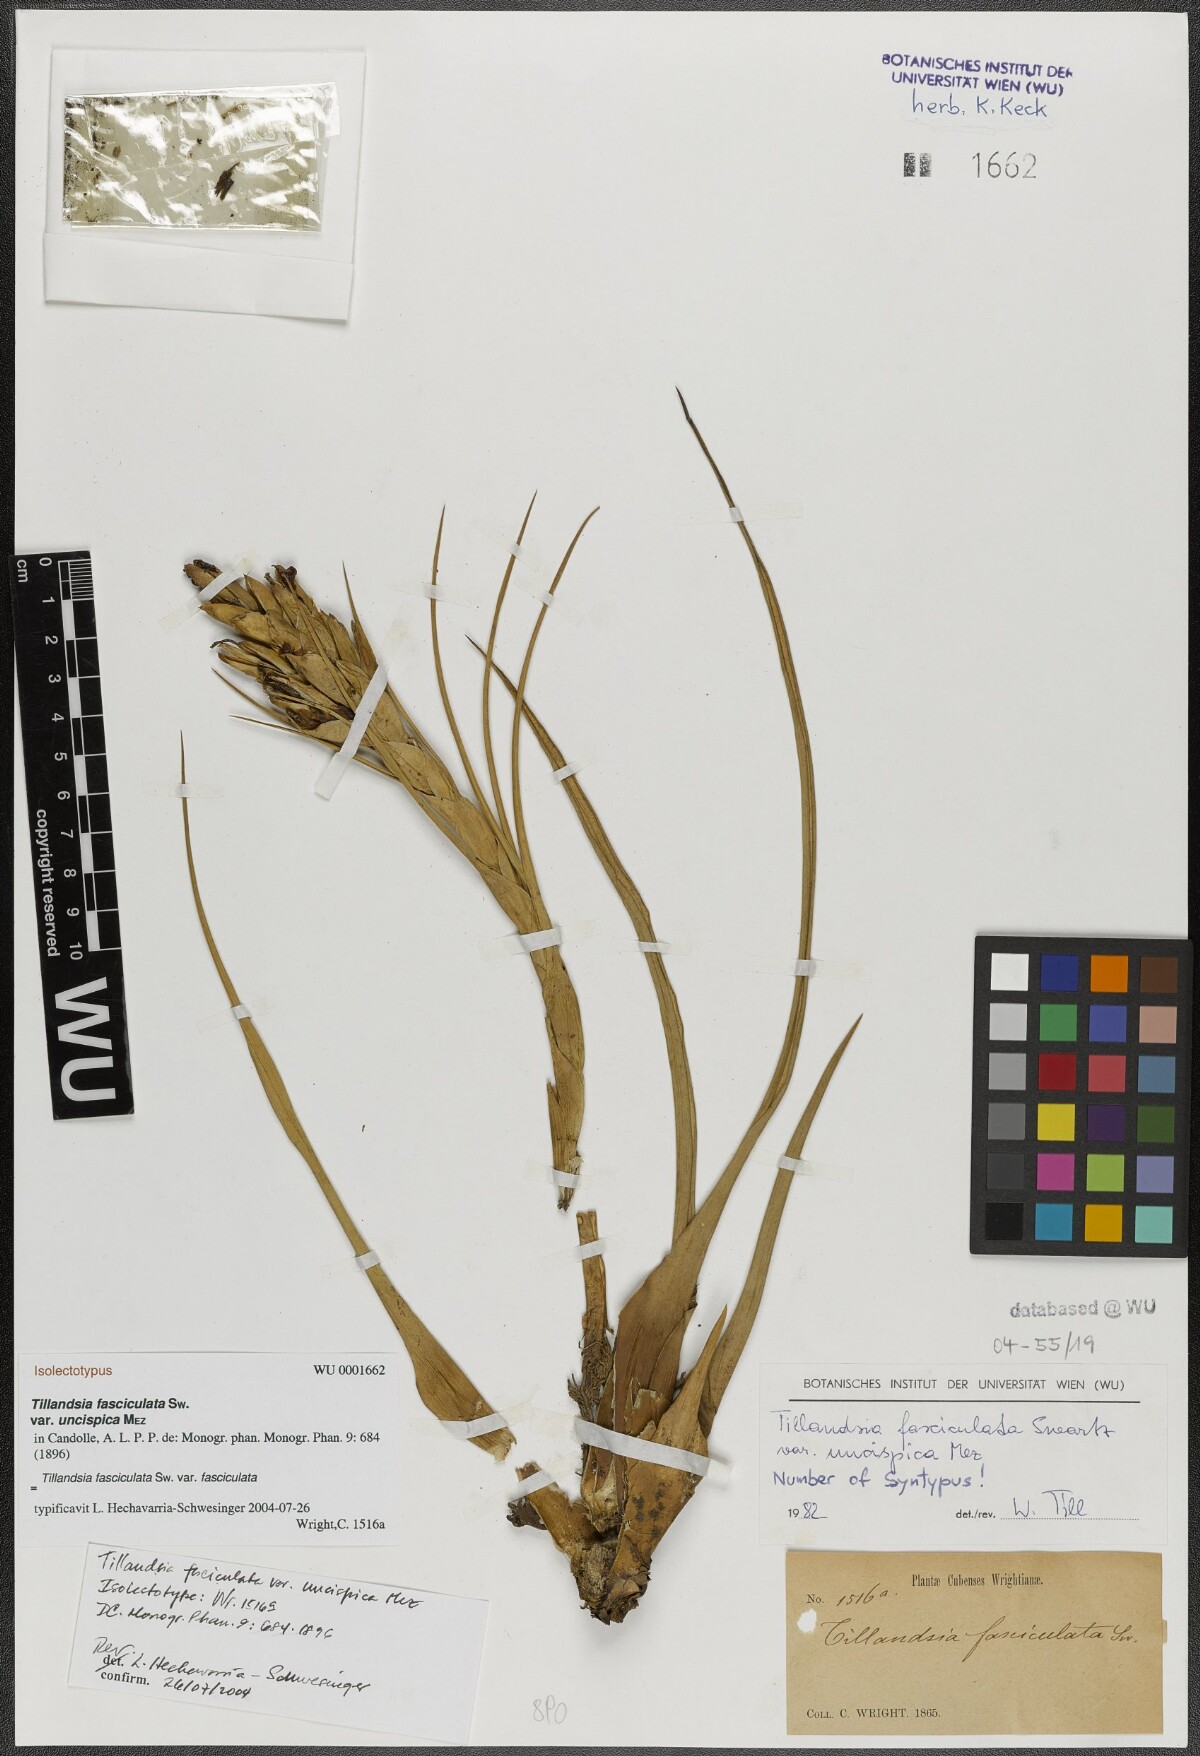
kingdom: Plantae
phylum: Tracheophyta
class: Liliopsida
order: Poales
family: Bromeliaceae
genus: Tillandsia
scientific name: Tillandsia fasciculata
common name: Giant airplant
